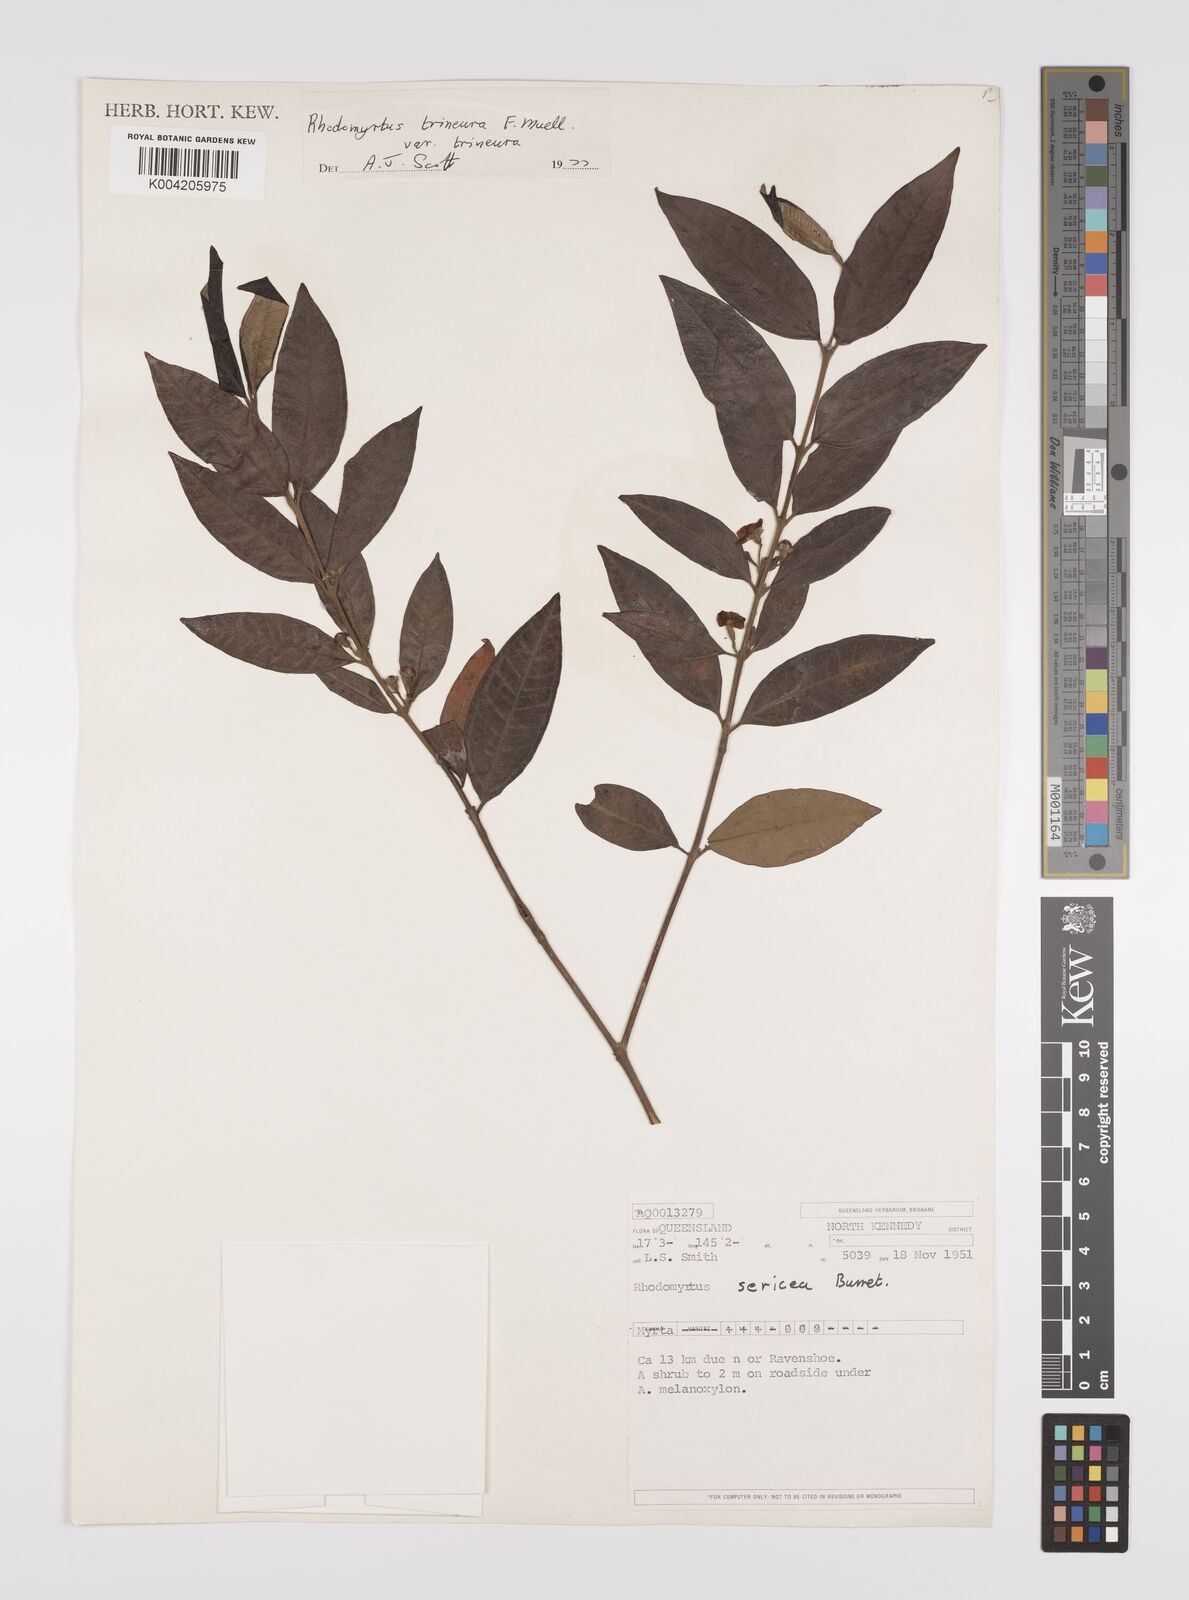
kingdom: Plantae
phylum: Tracheophyta
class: Magnoliopsida
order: Myrtales
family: Myrtaceae
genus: Rhodomyrtus
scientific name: Rhodomyrtus sericea
